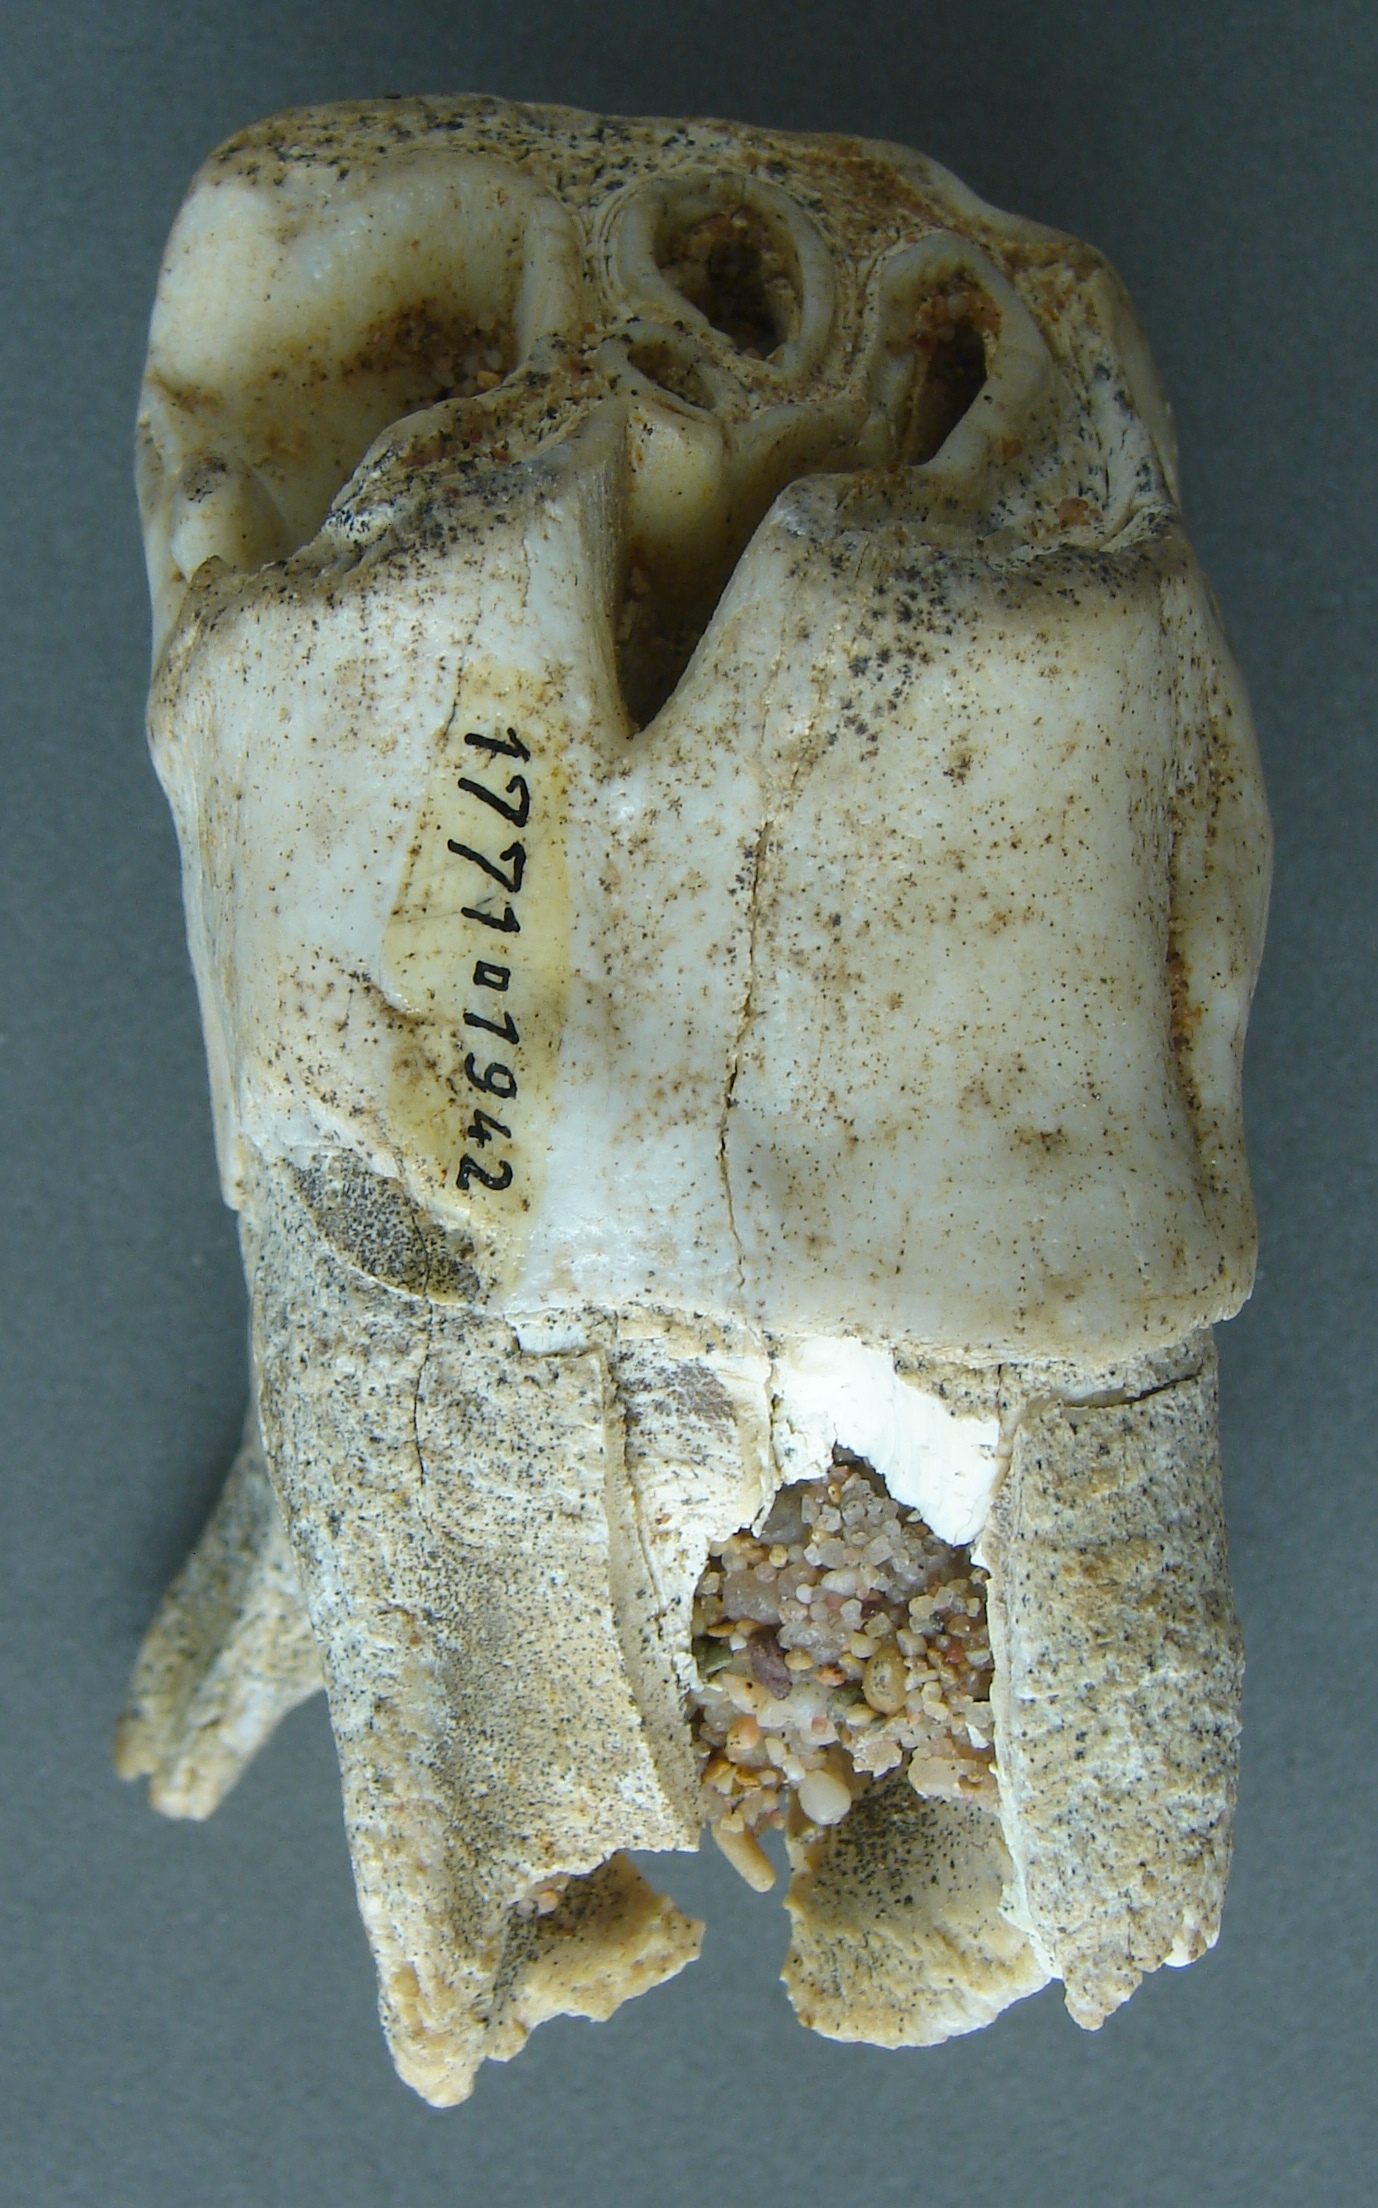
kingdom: Animalia
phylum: Chordata
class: Mammalia
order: Perissodactyla
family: Rhinocerotidae
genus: Rhinoceros
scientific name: Rhinoceros
